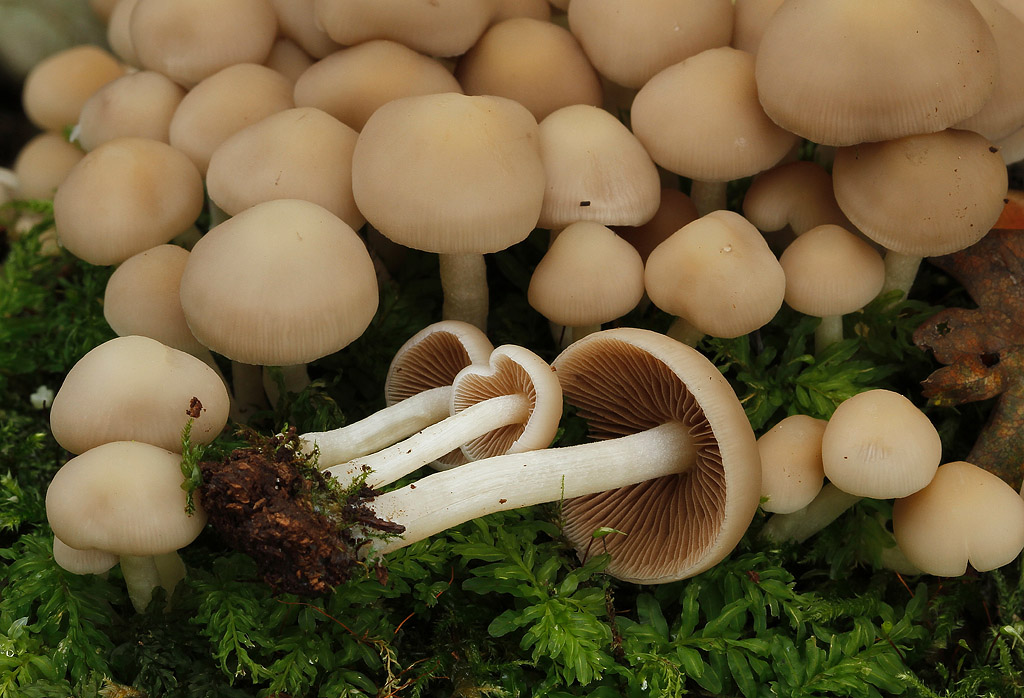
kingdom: Fungi
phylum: Basidiomycota
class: Agaricomycetes
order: Agaricales
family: Psathyrellaceae
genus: Homophron
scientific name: Homophron cernuum
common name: hvidlig mørkhat
